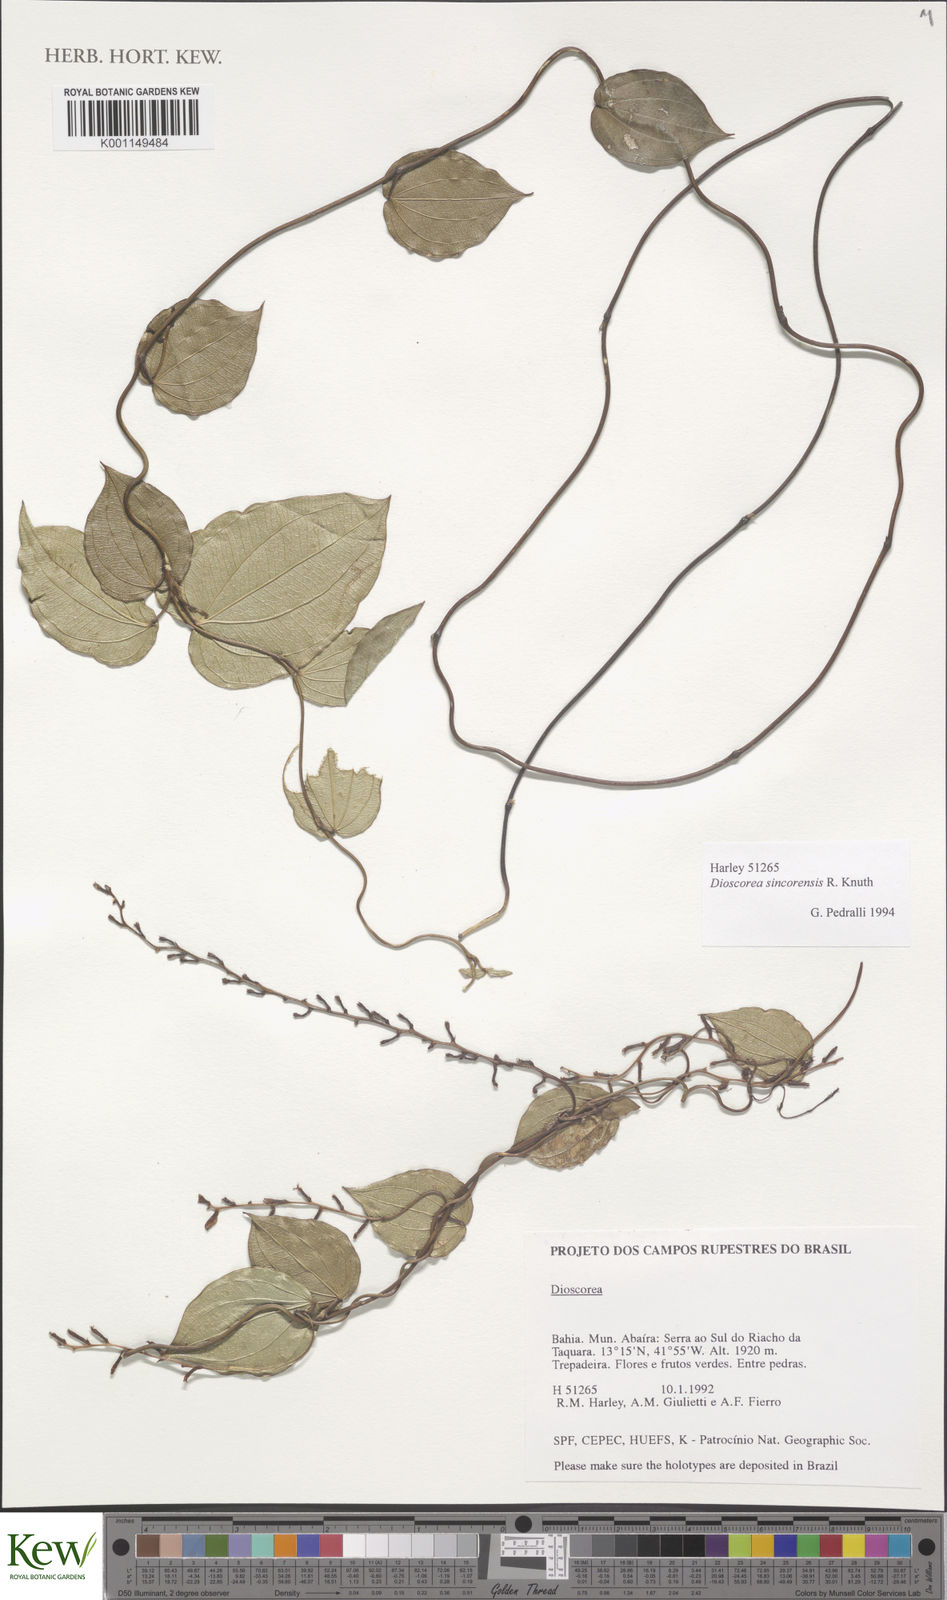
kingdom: Plantae
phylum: Tracheophyta
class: Liliopsida
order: Dioscoreales
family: Dioscoreaceae
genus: Dioscorea
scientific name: Dioscorea sincorensis
